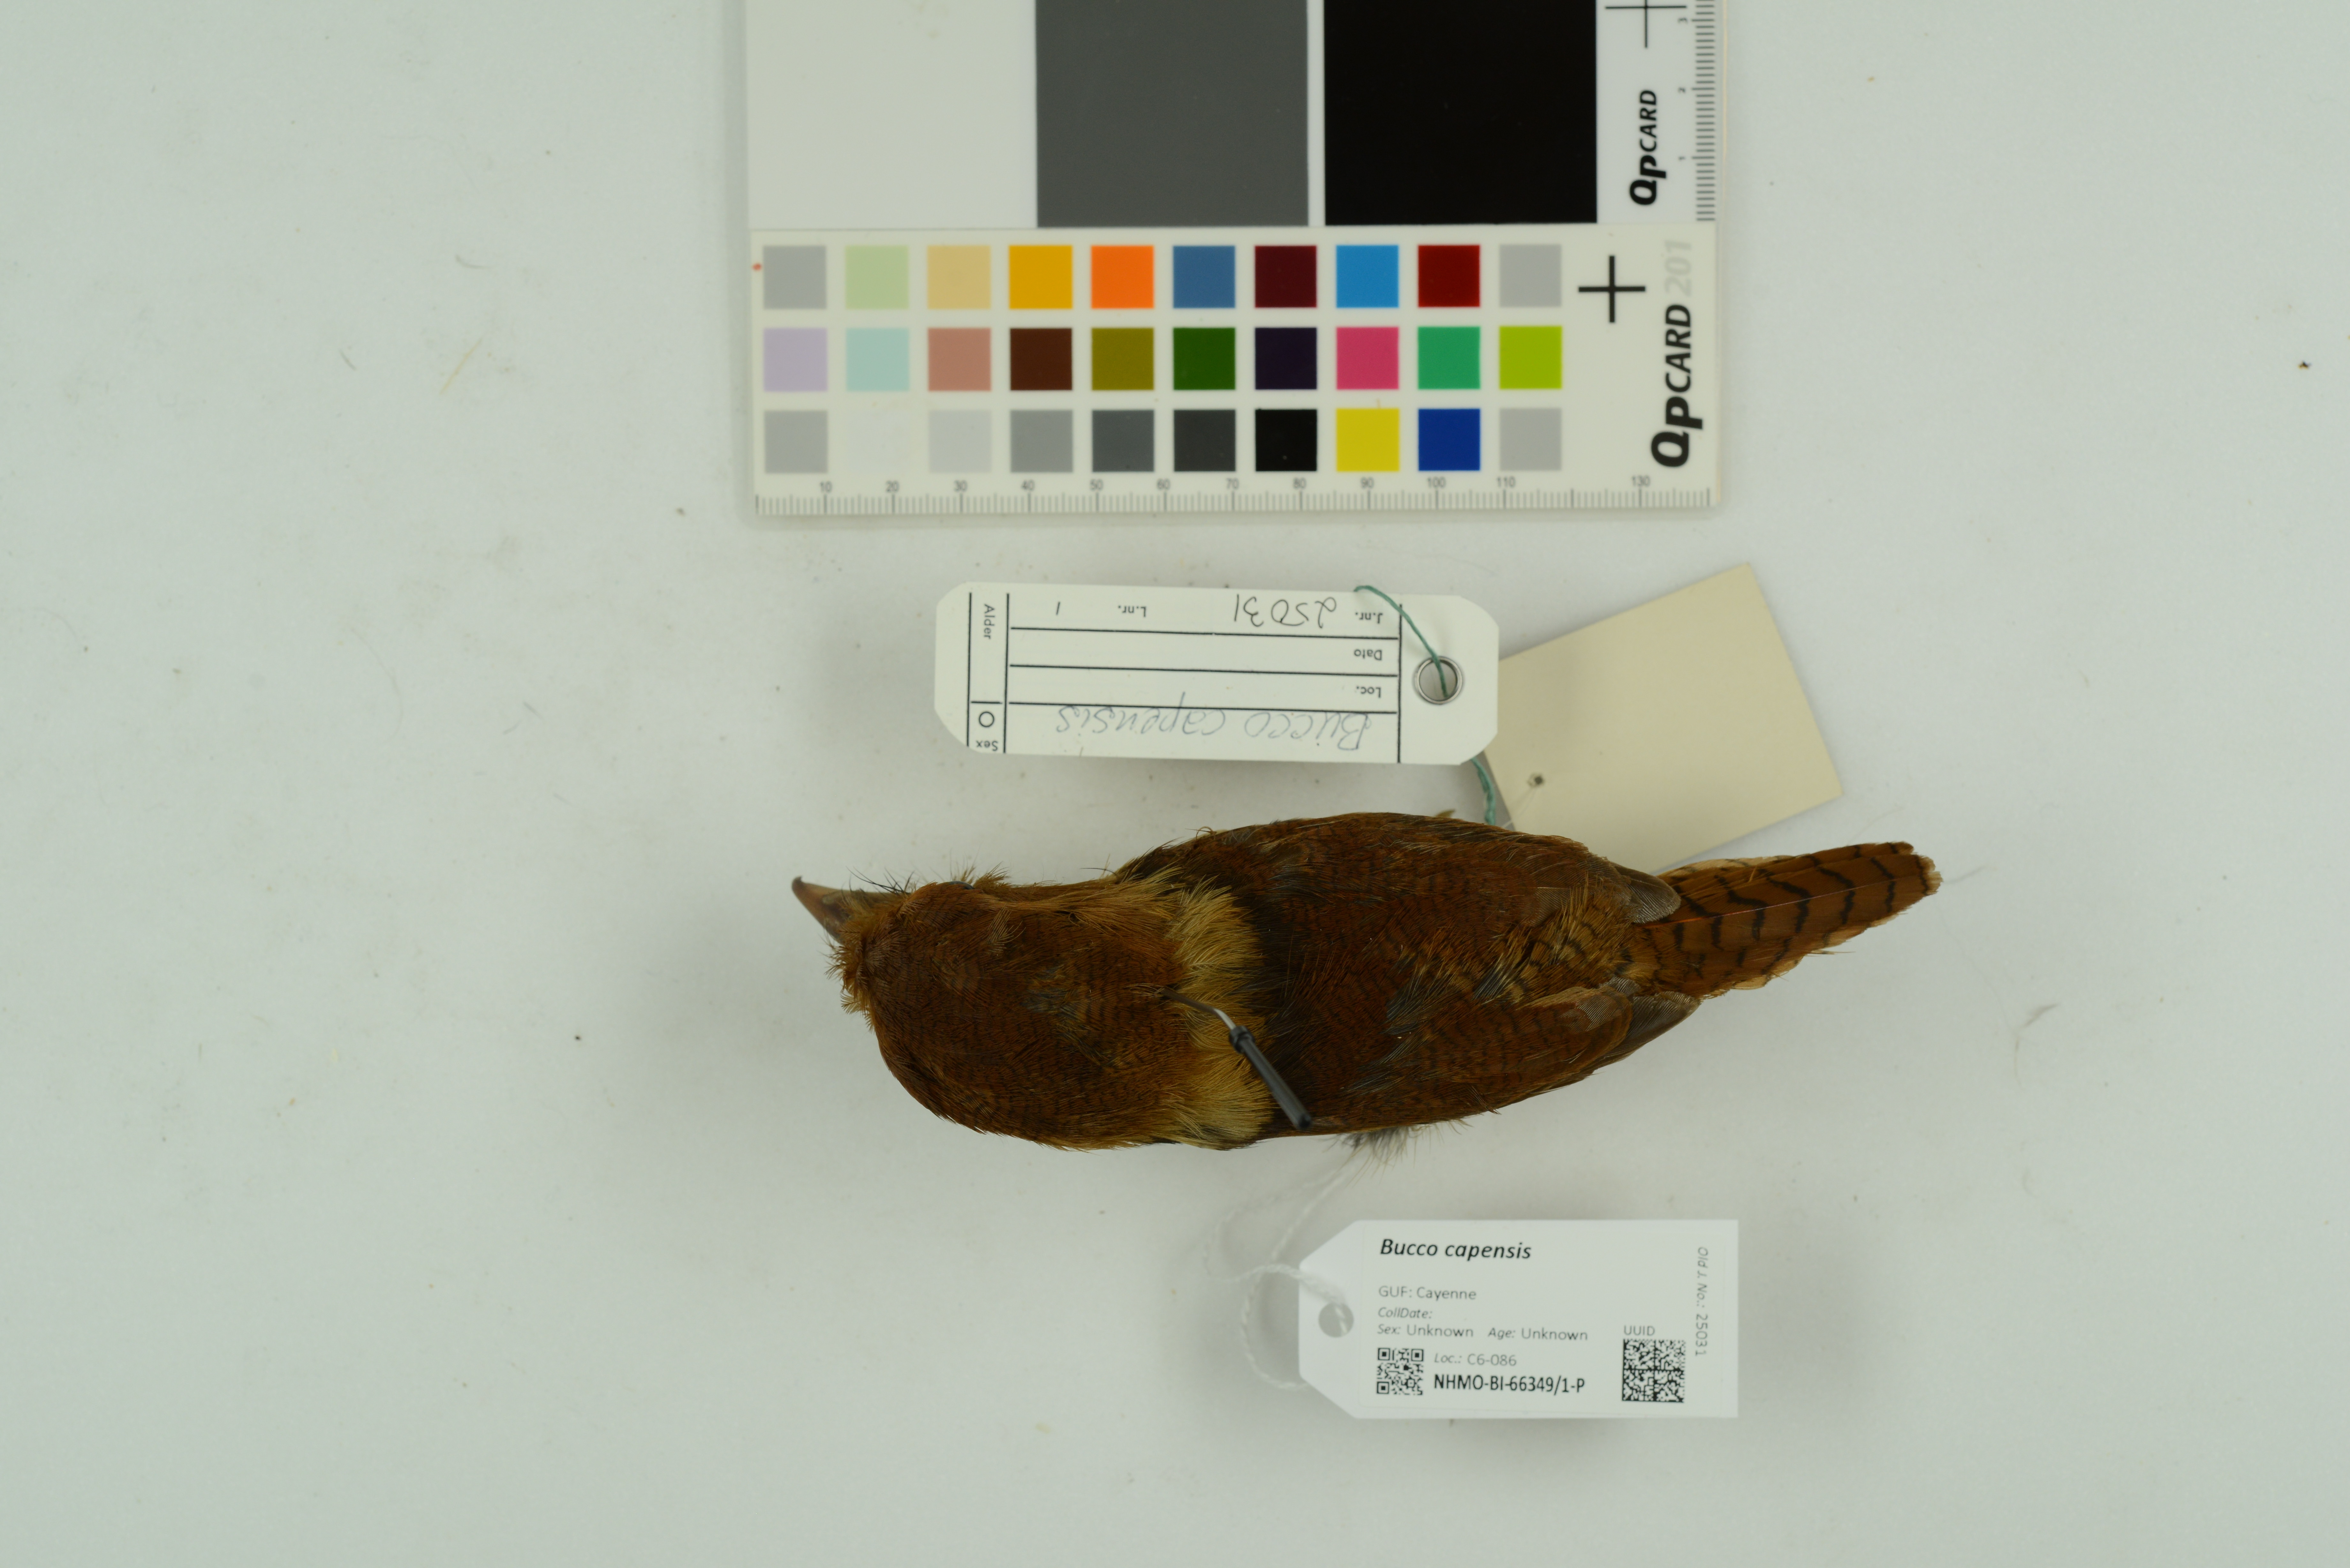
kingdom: Animalia
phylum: Chordata
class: Aves
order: Piciformes
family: Bucconidae
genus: Bucco
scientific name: Bucco capensis
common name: Collared puffbird
